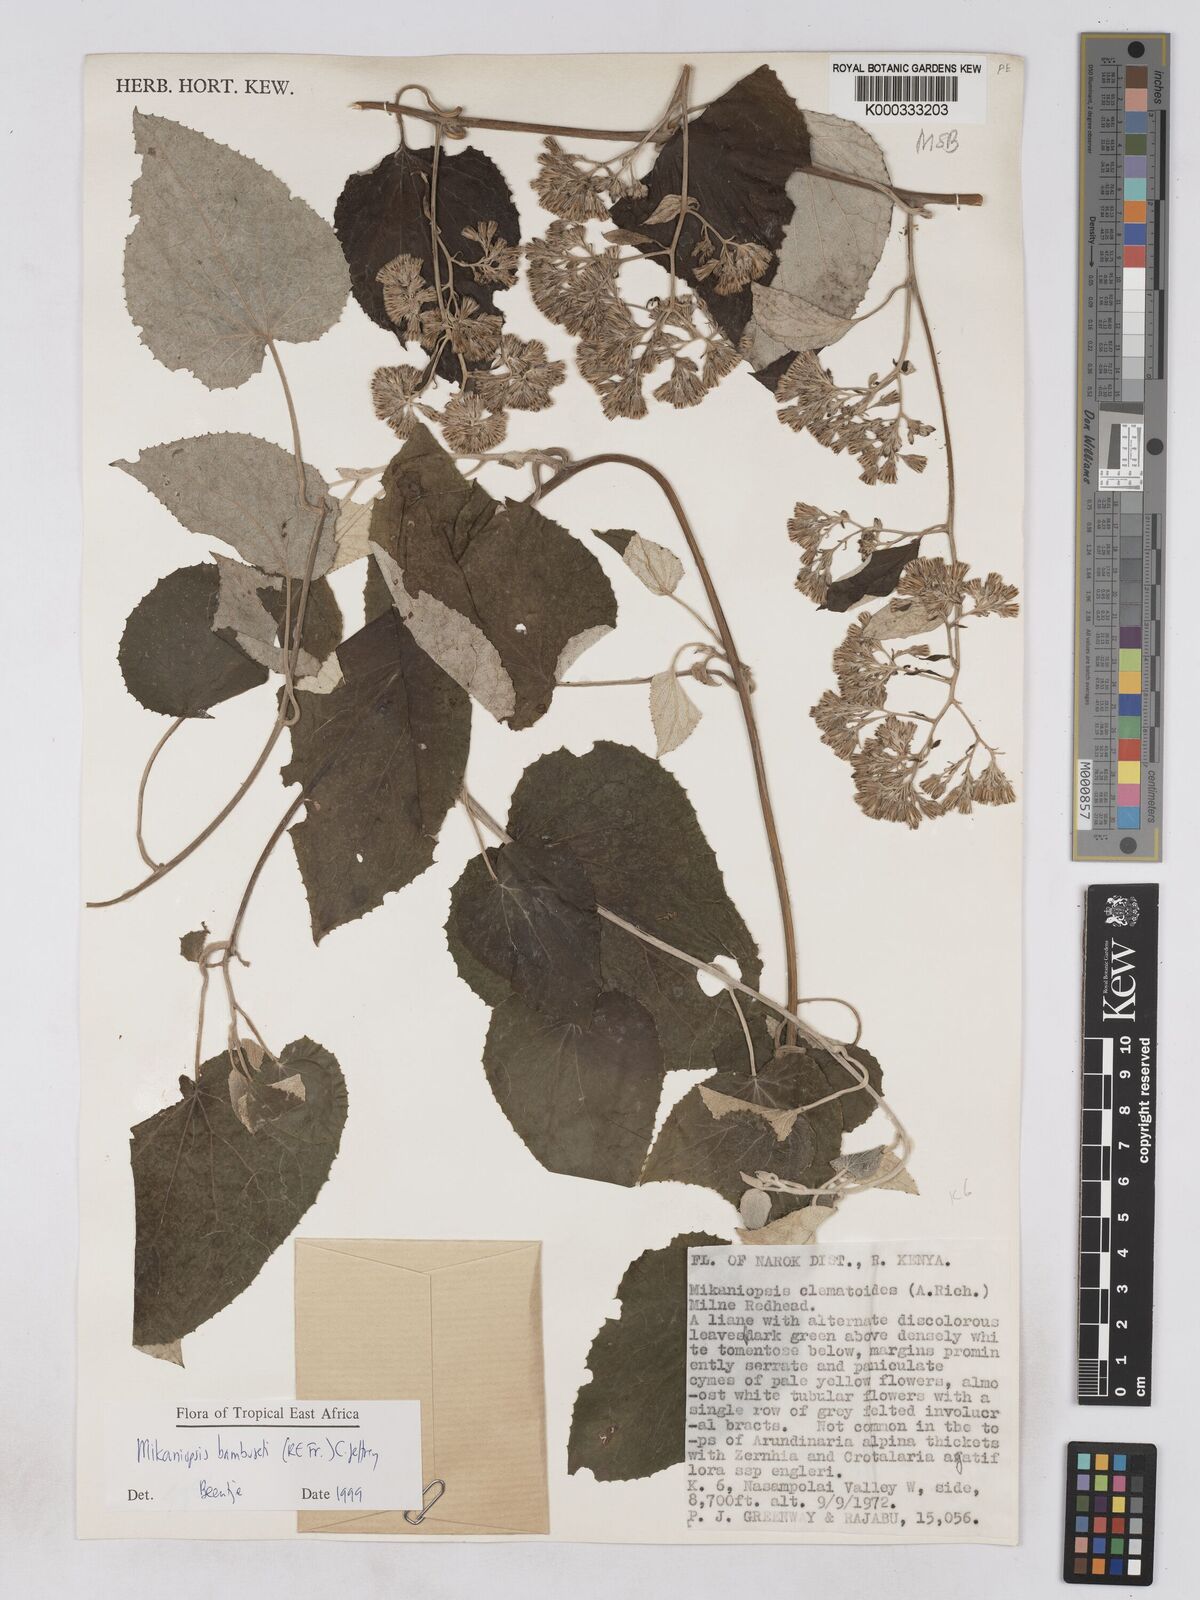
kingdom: Plantae
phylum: Tracheophyta
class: Magnoliopsida
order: Asterales
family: Asteraceae
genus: Mikaniopsis
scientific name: Mikaniopsis bambuseti
